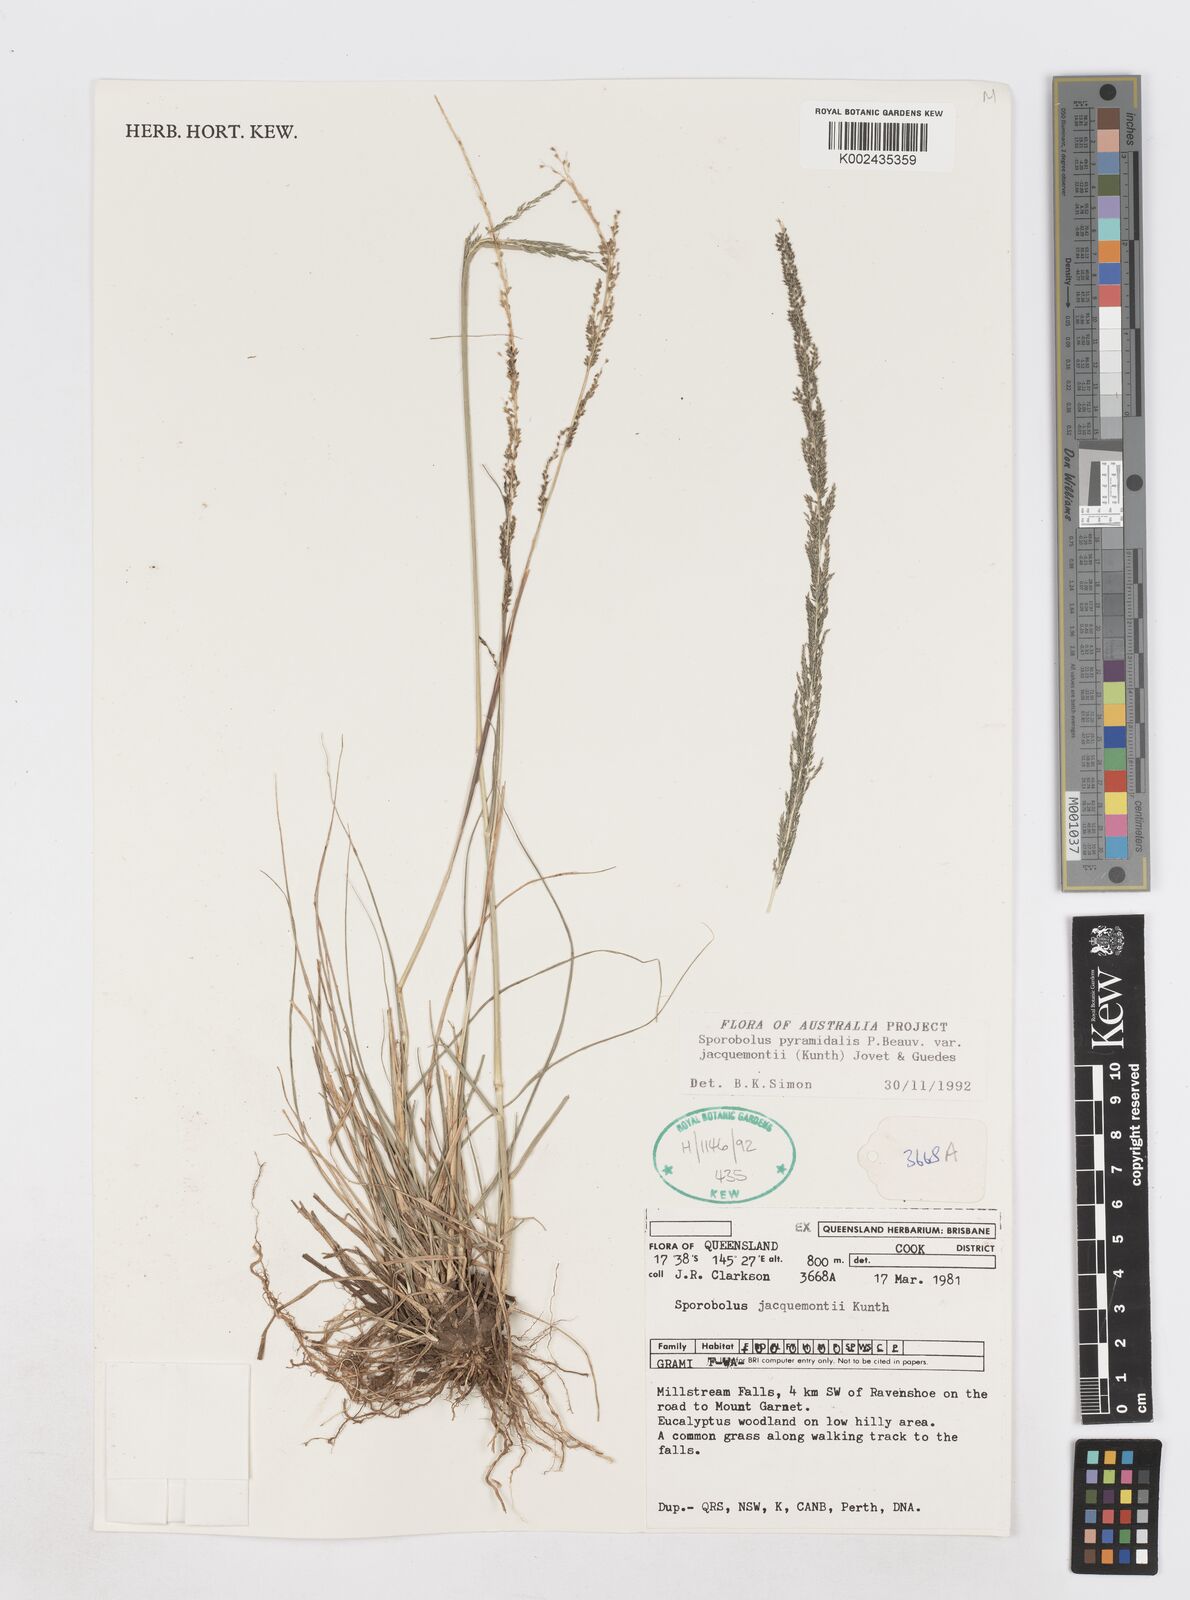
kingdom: Plantae
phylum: Tracheophyta
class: Liliopsida
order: Poales
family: Poaceae
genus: Sporobolus
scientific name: Sporobolus pyramidalis
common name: West indian dropseed
